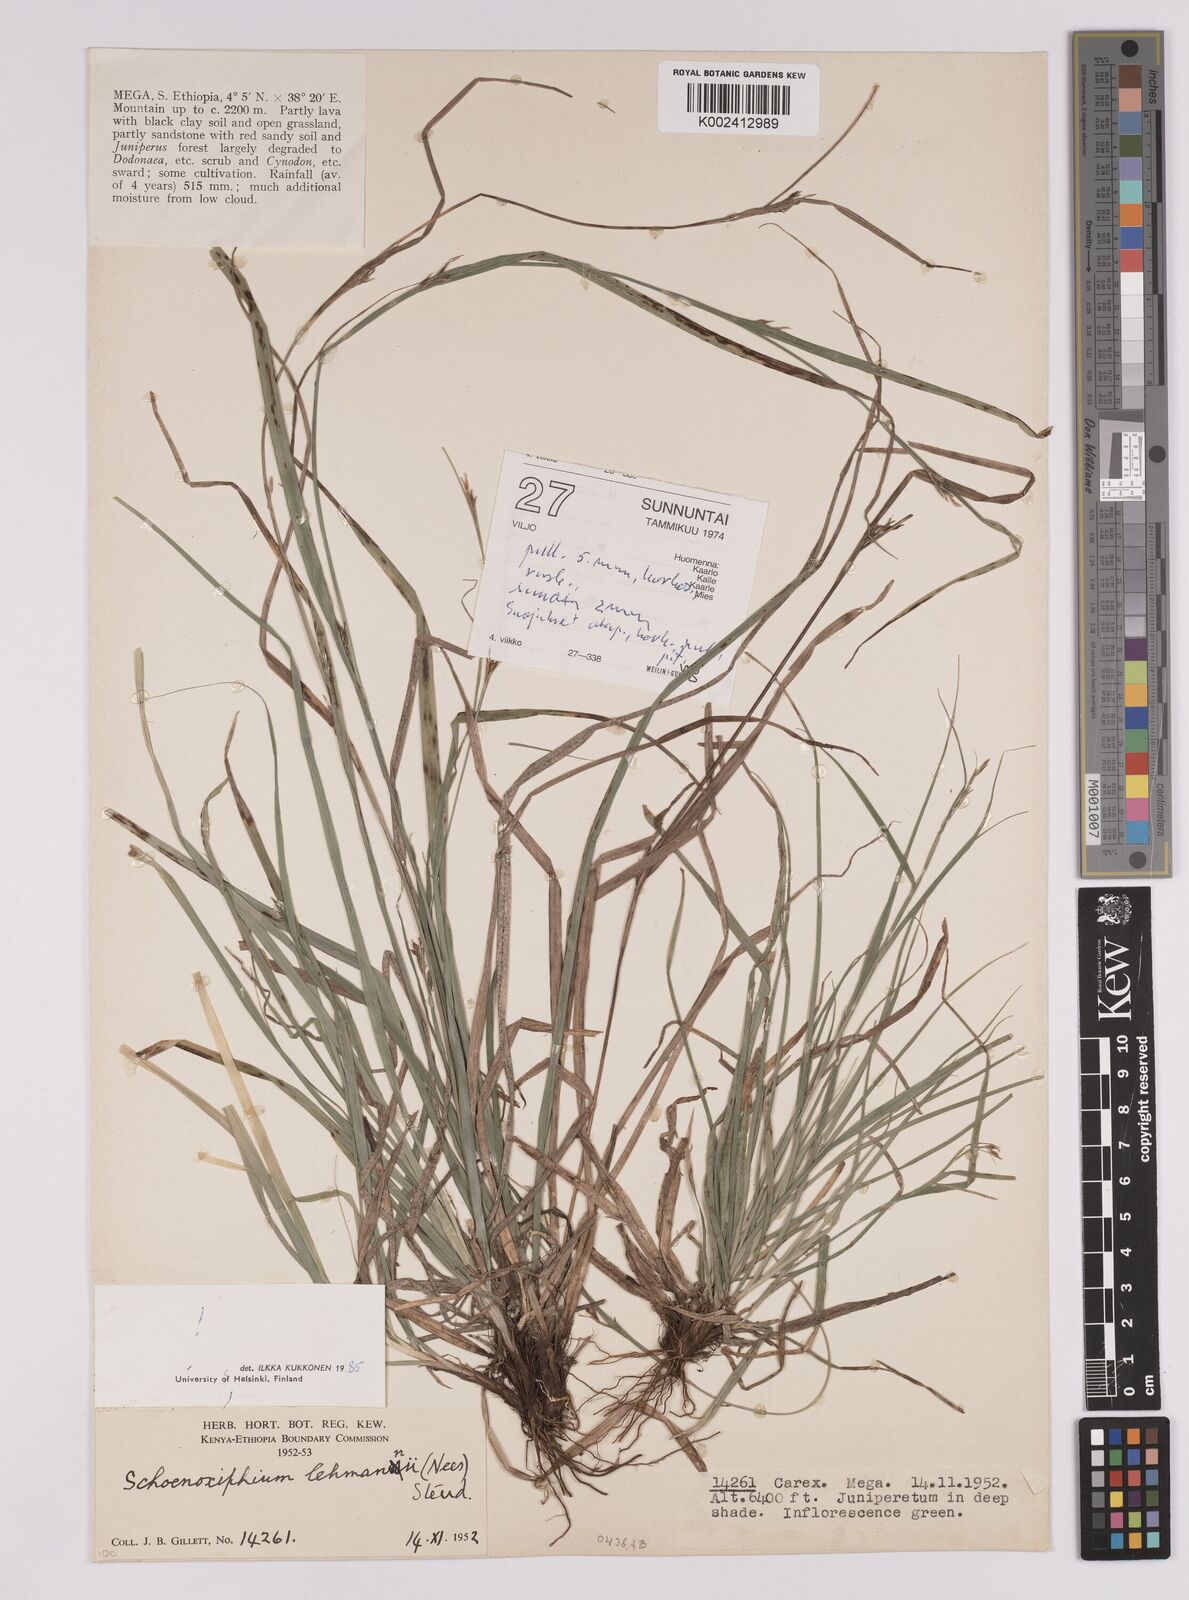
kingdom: Plantae
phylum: Tracheophyta
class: Liliopsida
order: Poales
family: Cyperaceae
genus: Carex
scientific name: Carex uhligii
